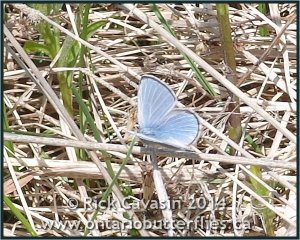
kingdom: Animalia
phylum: Arthropoda
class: Insecta
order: Lepidoptera
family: Lycaenidae
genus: Glaucopsyche
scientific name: Glaucopsyche lygdamus
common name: Silvery Blue
